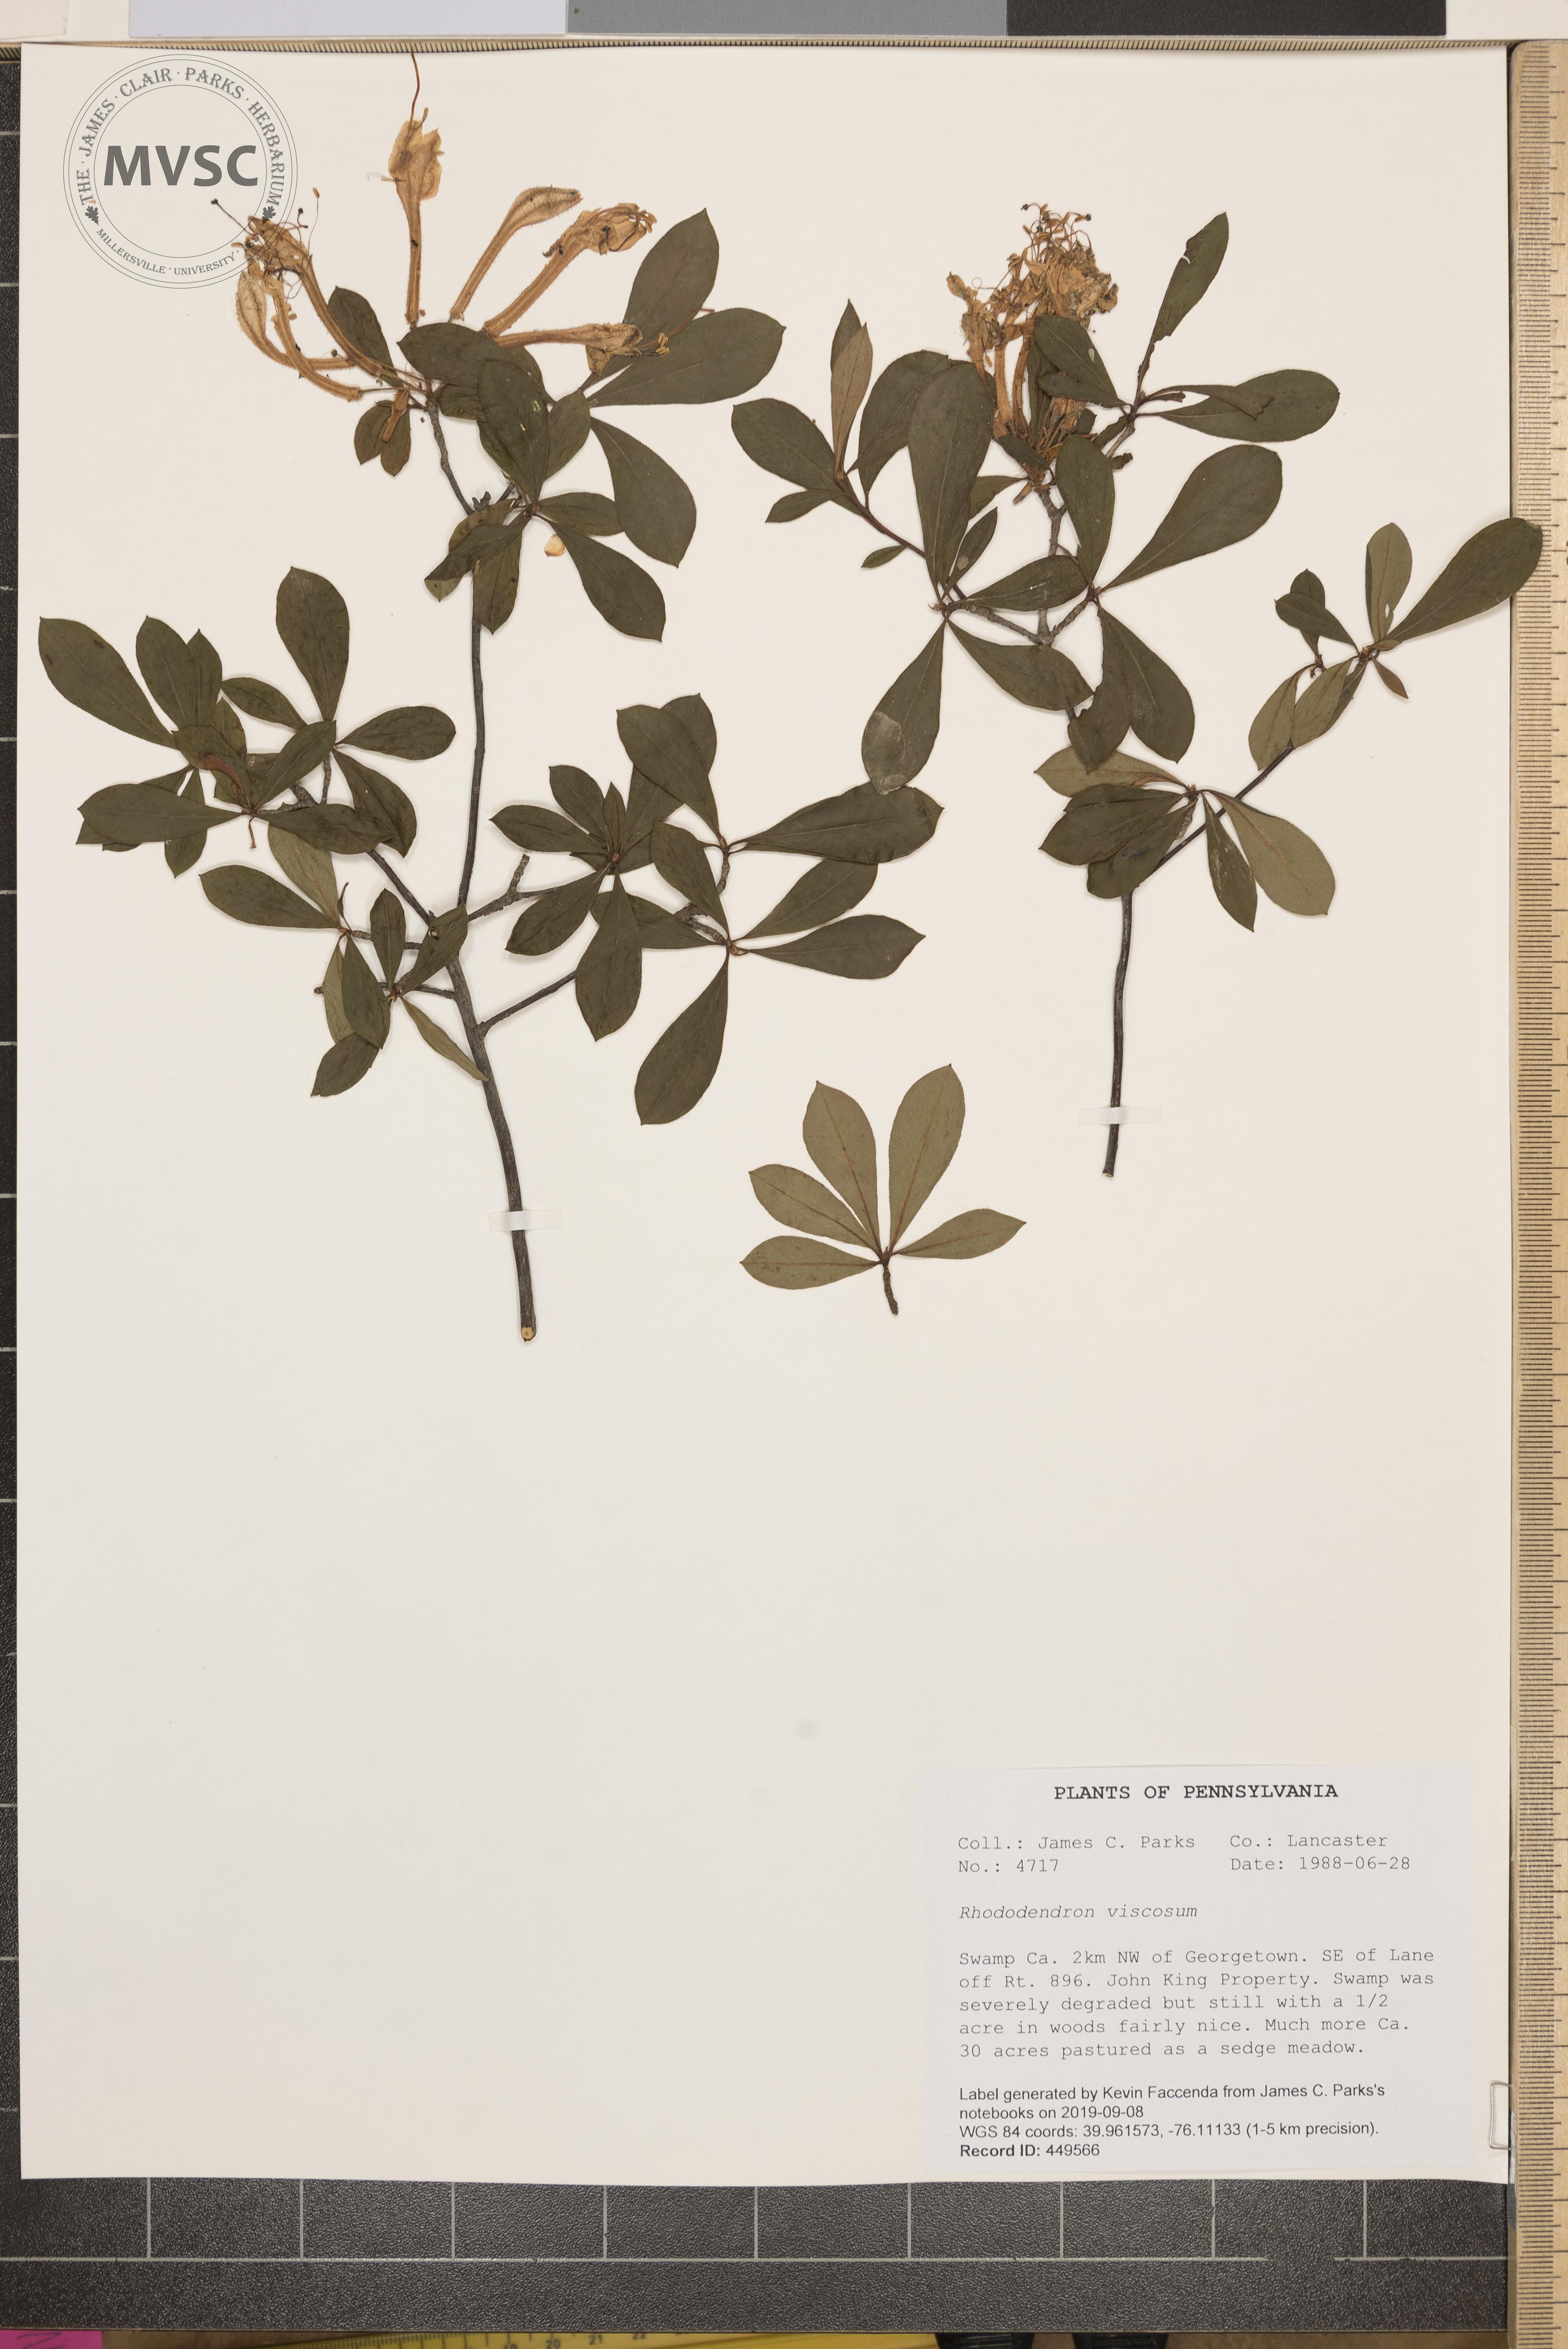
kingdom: Plantae
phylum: Tracheophyta
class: Magnoliopsida
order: Ericales
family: Ericaceae
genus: Rhododendron
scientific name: Rhododendron viscosum
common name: Clammy azalea
